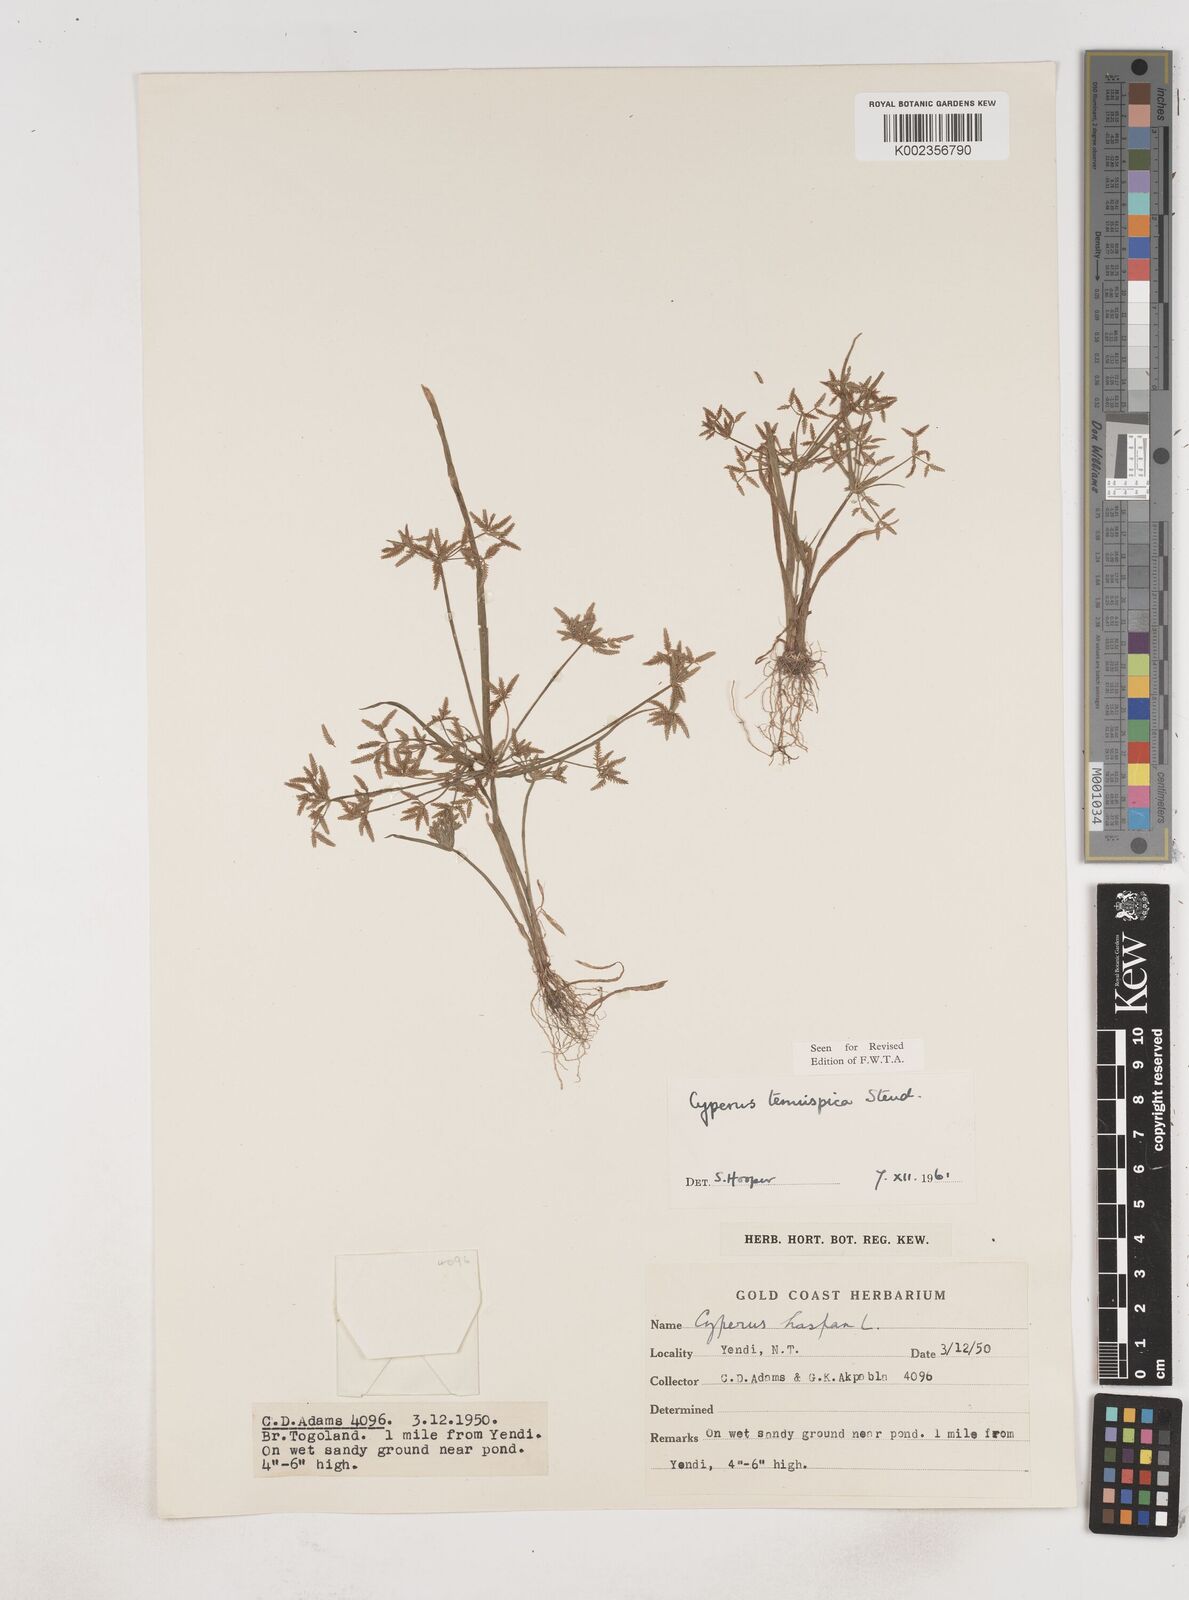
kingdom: Plantae
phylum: Tracheophyta
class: Liliopsida
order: Poales
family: Cyperaceae
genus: Cyperus
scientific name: Cyperus tenuispica
